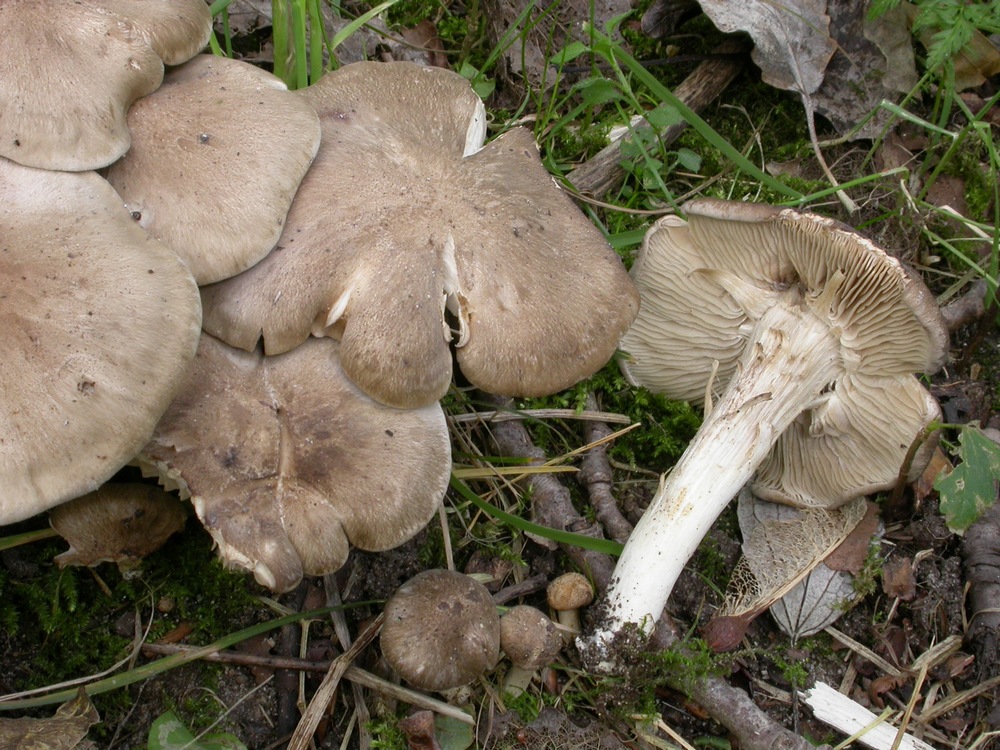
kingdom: Fungi
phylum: Basidiomycota
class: Agaricomycetes
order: Agaricales
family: Lyophyllaceae
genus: Lyophyllum
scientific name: Lyophyllum decastes
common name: Clustered domecap
